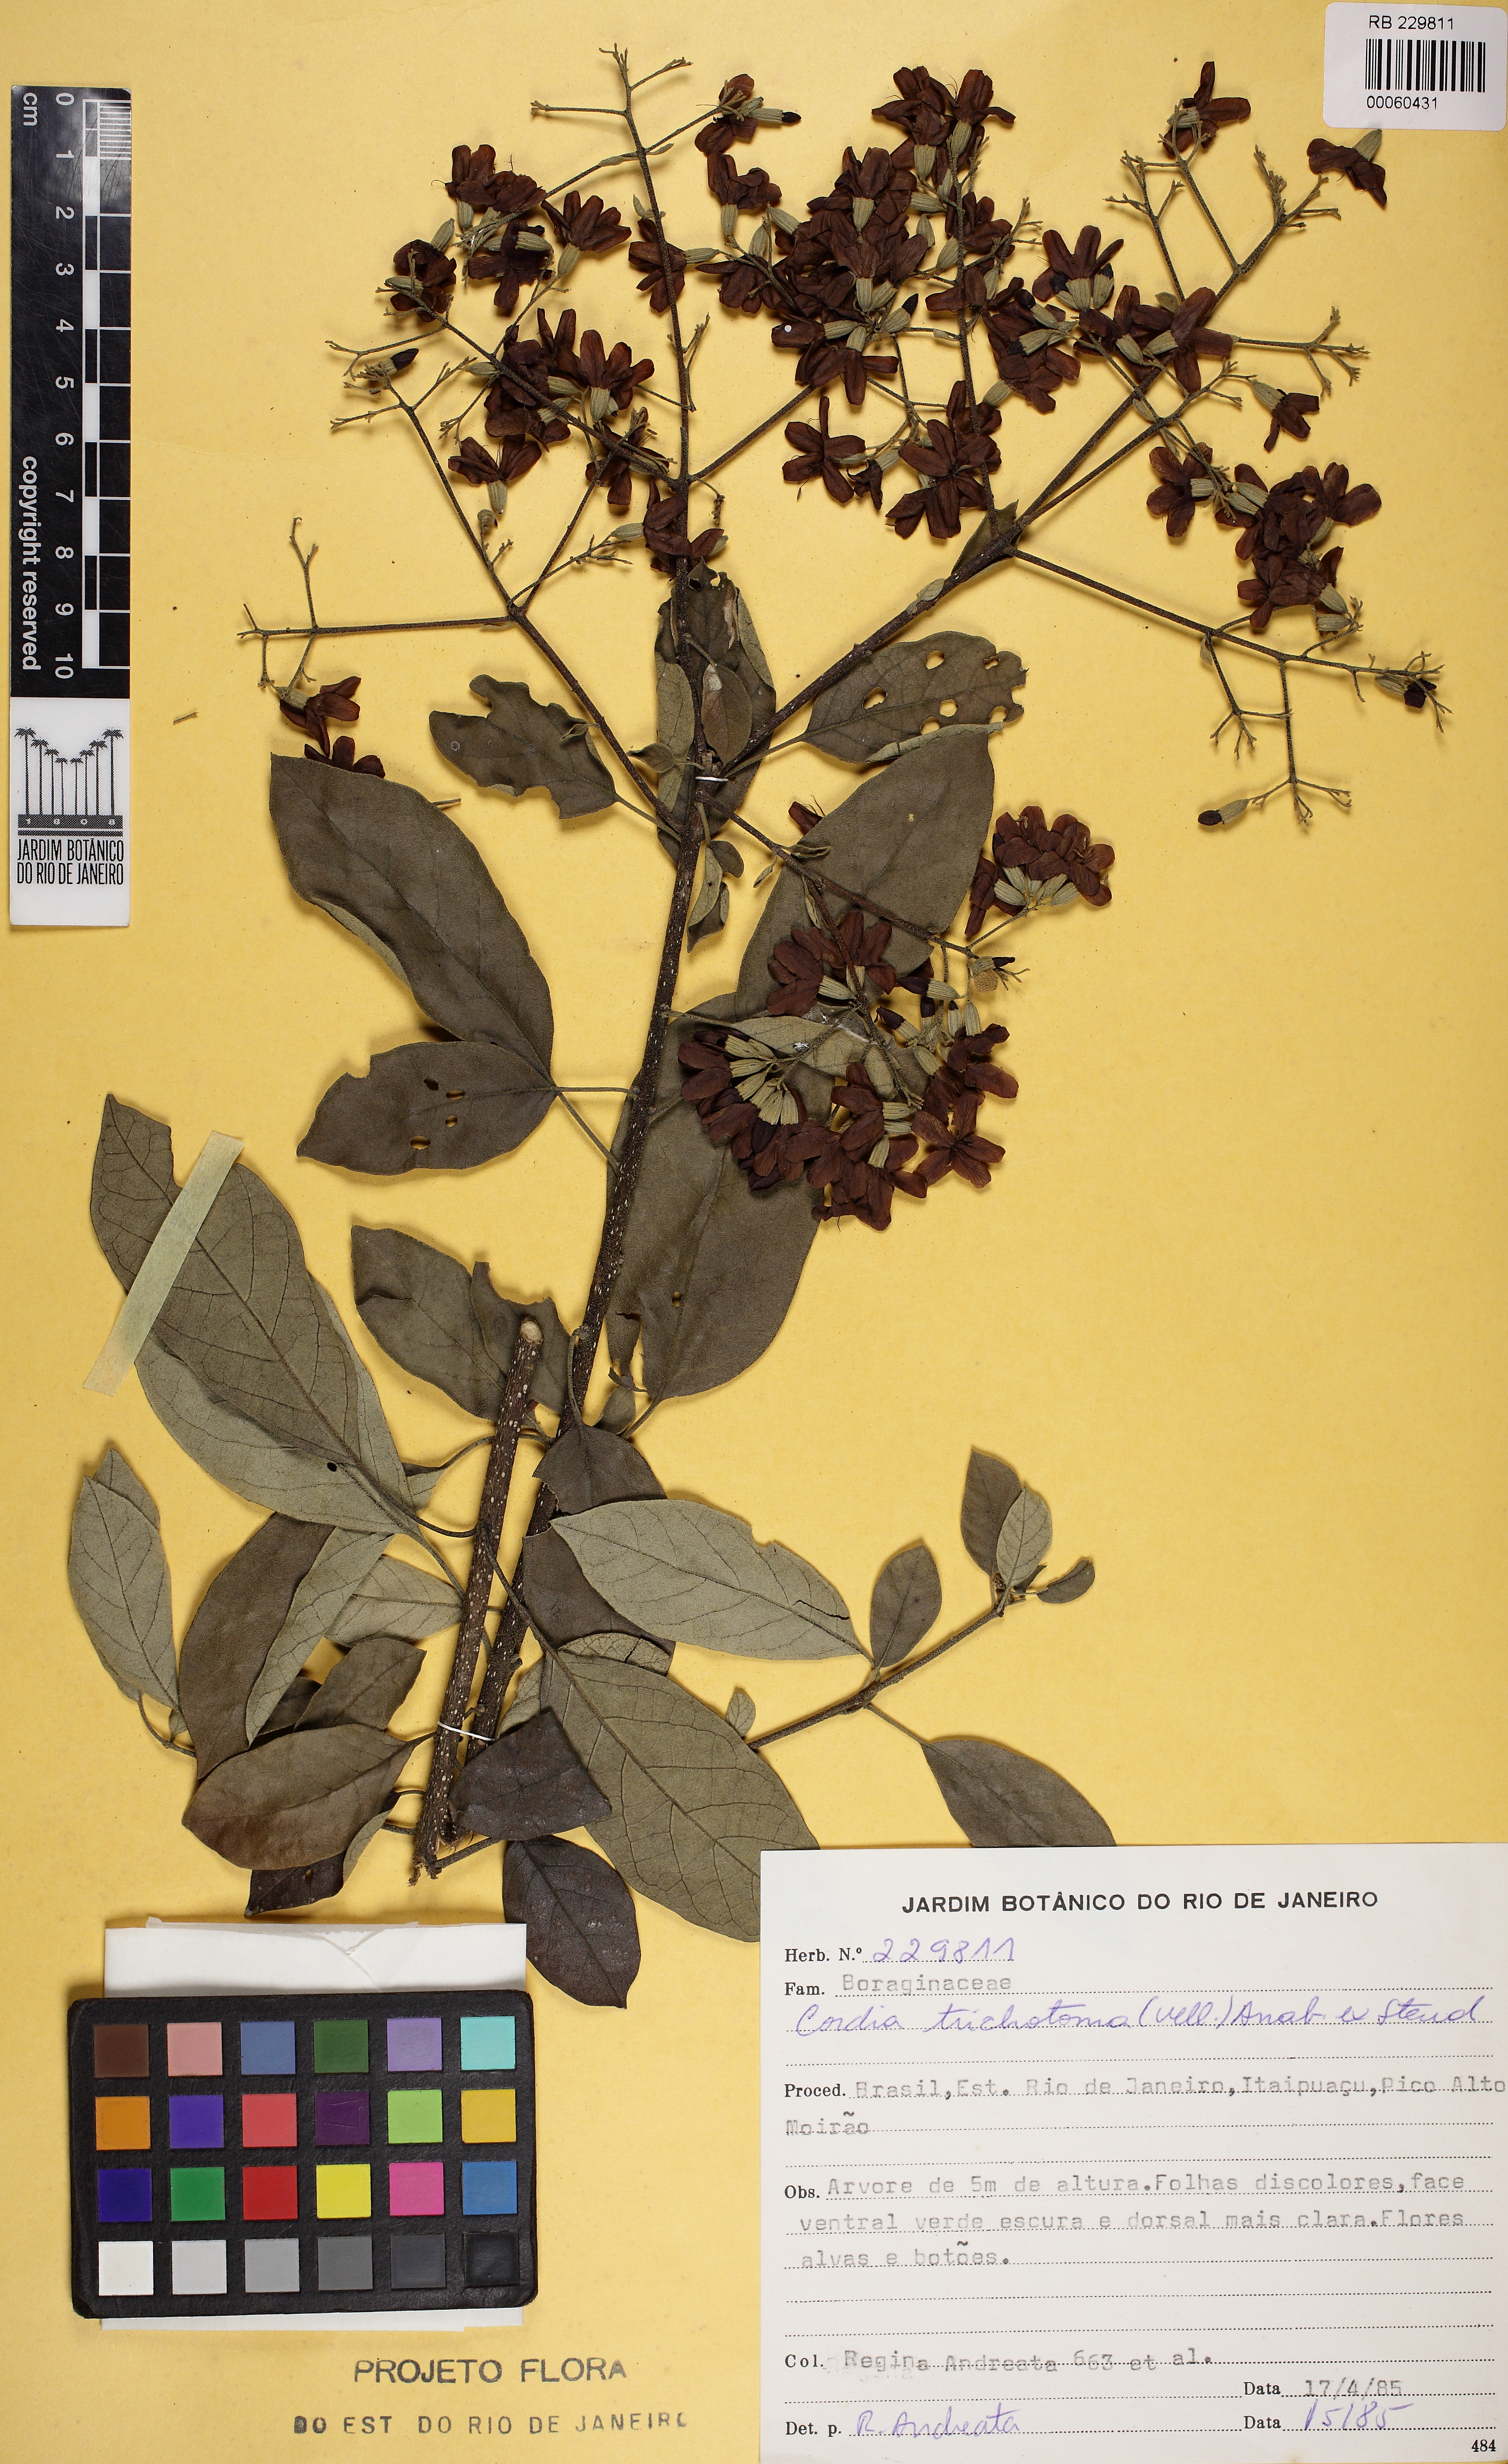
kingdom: Plantae
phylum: Tracheophyta
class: Magnoliopsida
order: Boraginales
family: Cordiaceae
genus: Cordia
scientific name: Cordia trichotoma
